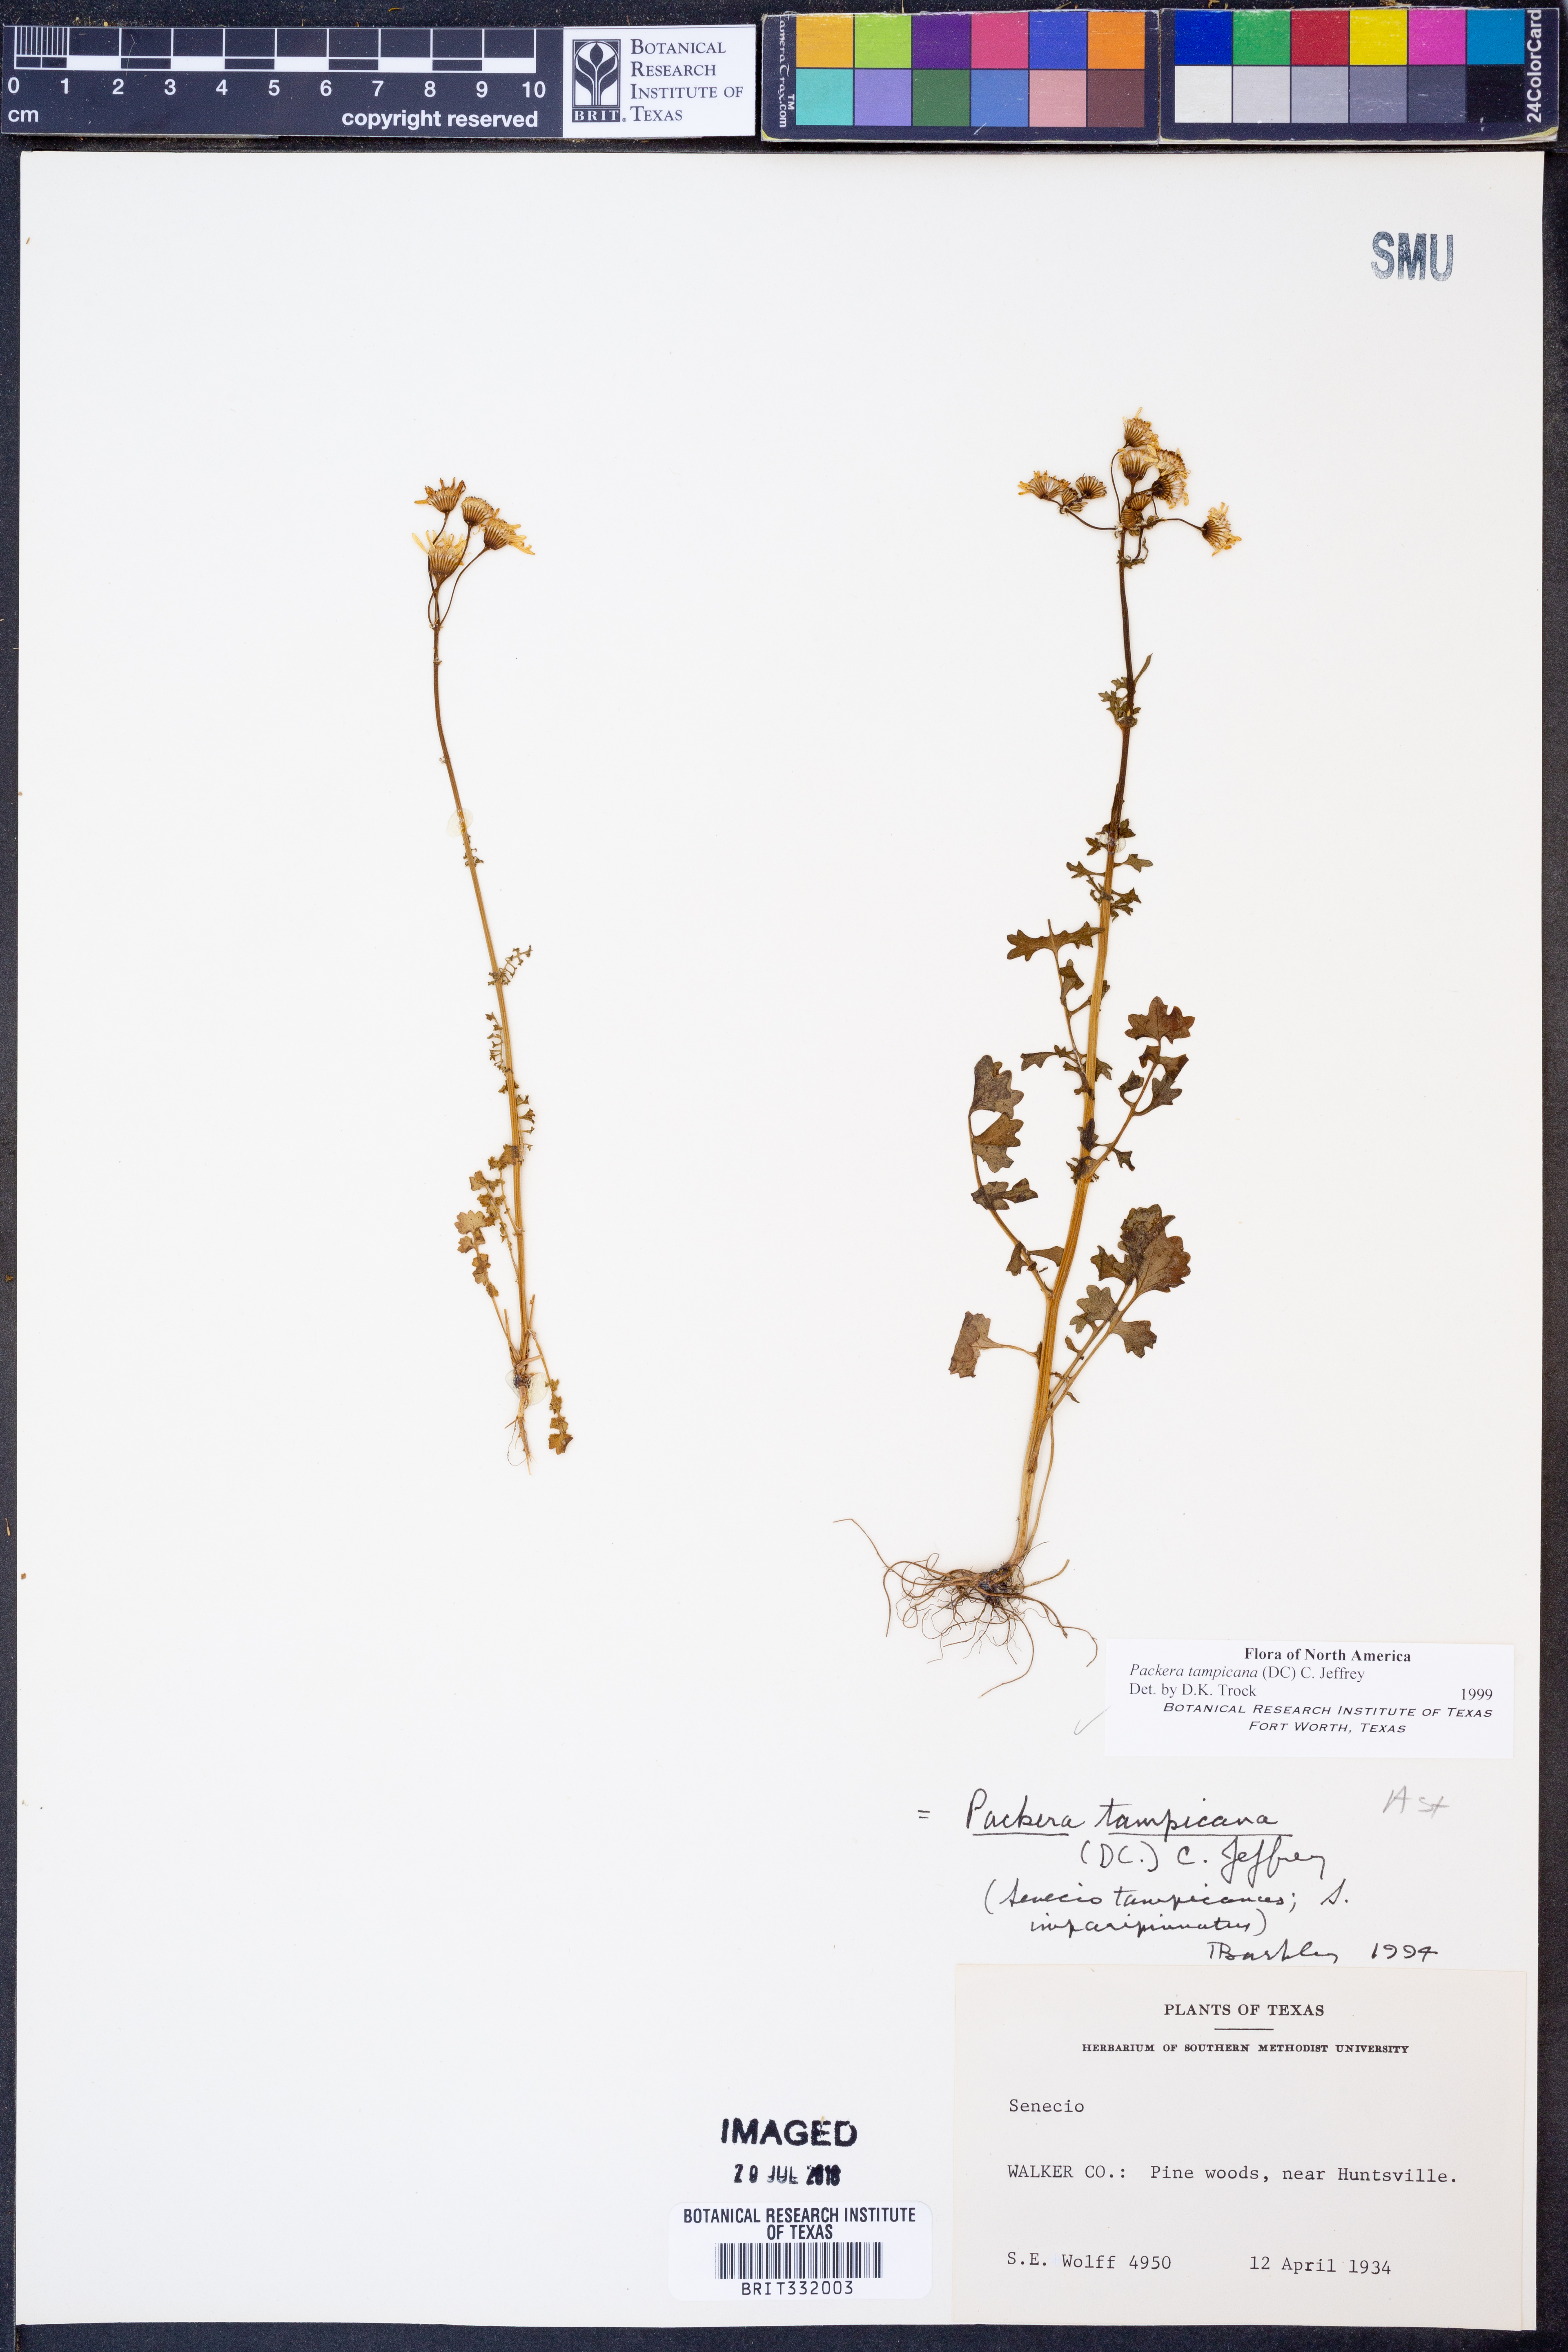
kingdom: Plantae
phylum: Tracheophyta
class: Magnoliopsida
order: Asterales
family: Asteraceae
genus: Packera
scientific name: Packera tampicana
